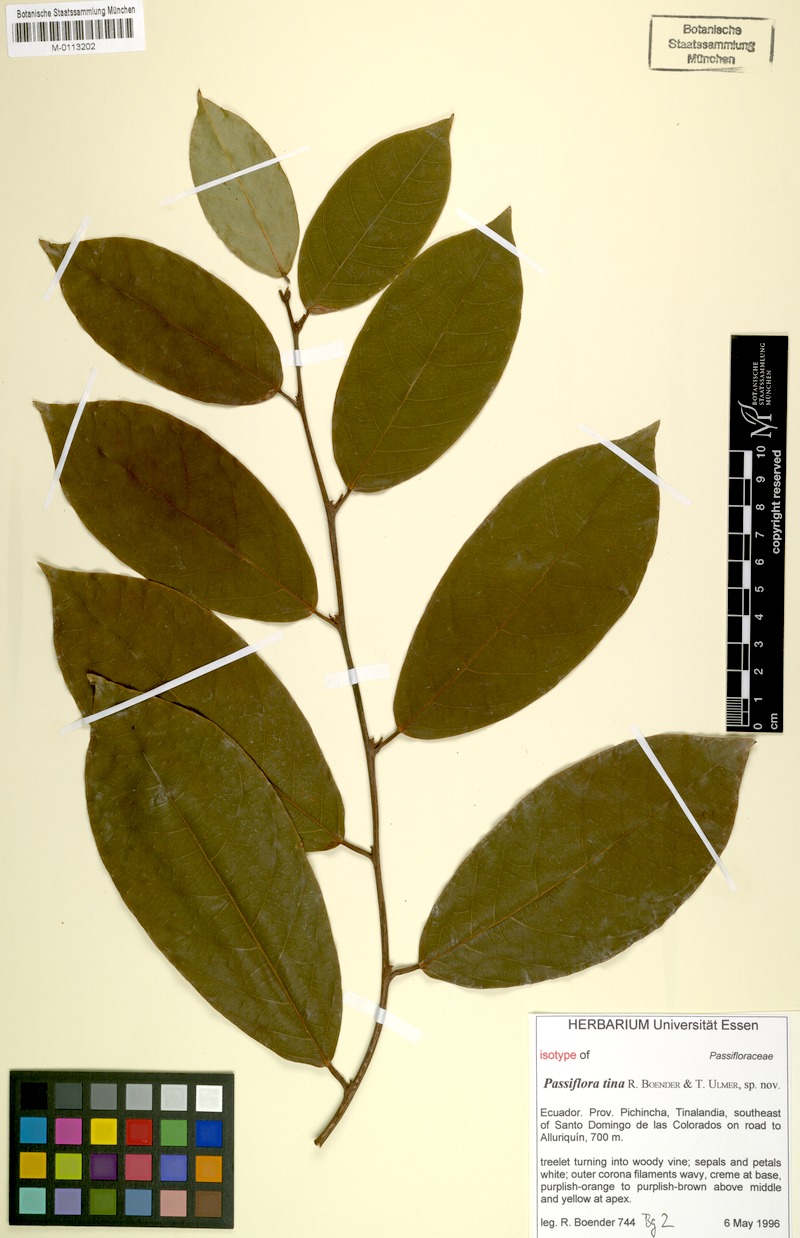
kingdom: Plantae
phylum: Tracheophyta
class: Magnoliopsida
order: Malpighiales
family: Passifloraceae
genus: Passiflora
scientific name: Passiflora tina
